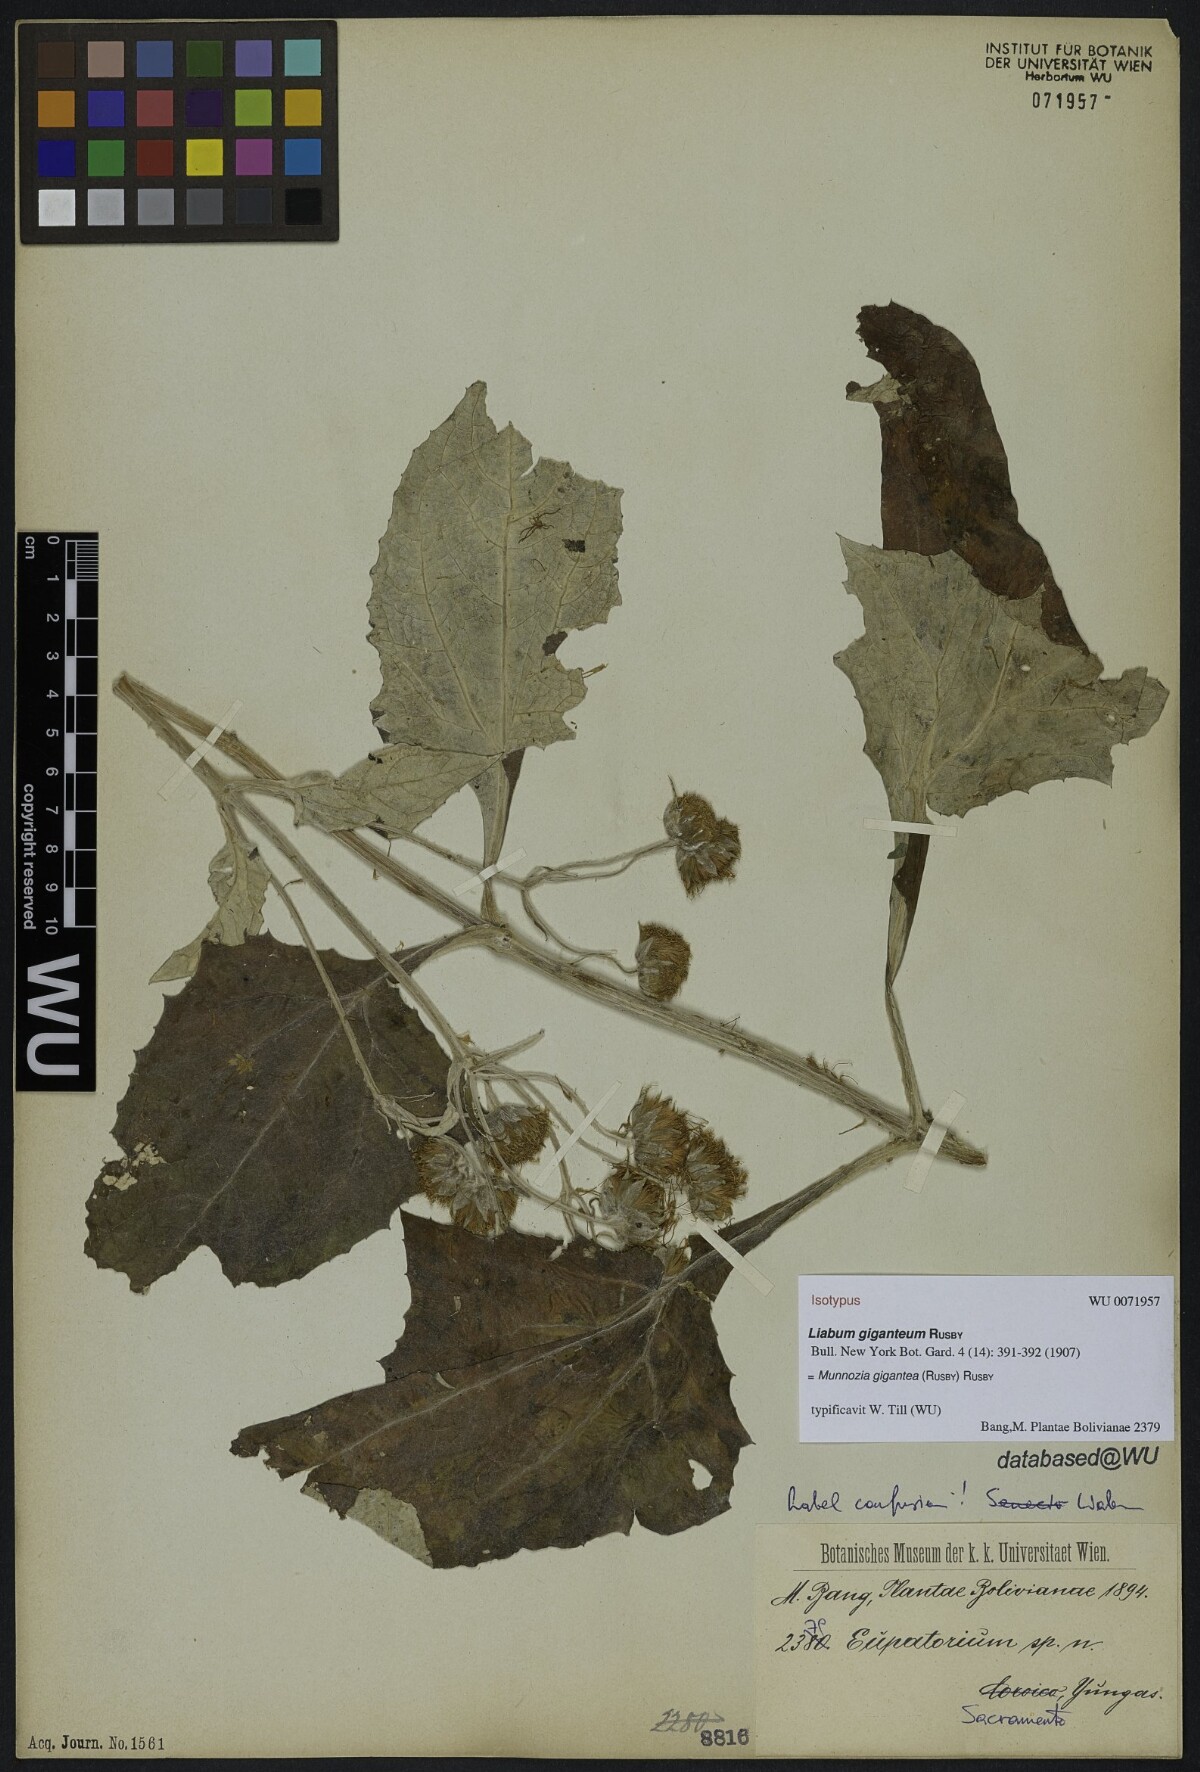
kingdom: Plantae
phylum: Tracheophyta
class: Magnoliopsida
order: Asterales
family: Asteraceae
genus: Munnozia
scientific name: Munnozia gigantea
